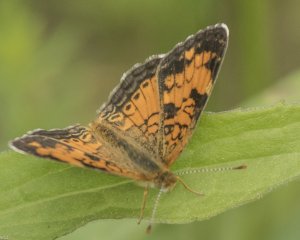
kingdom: Animalia
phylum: Arthropoda
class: Insecta
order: Lepidoptera
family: Nymphalidae
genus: Phyciodes
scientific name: Phyciodes tharos
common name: Northern Crescent
